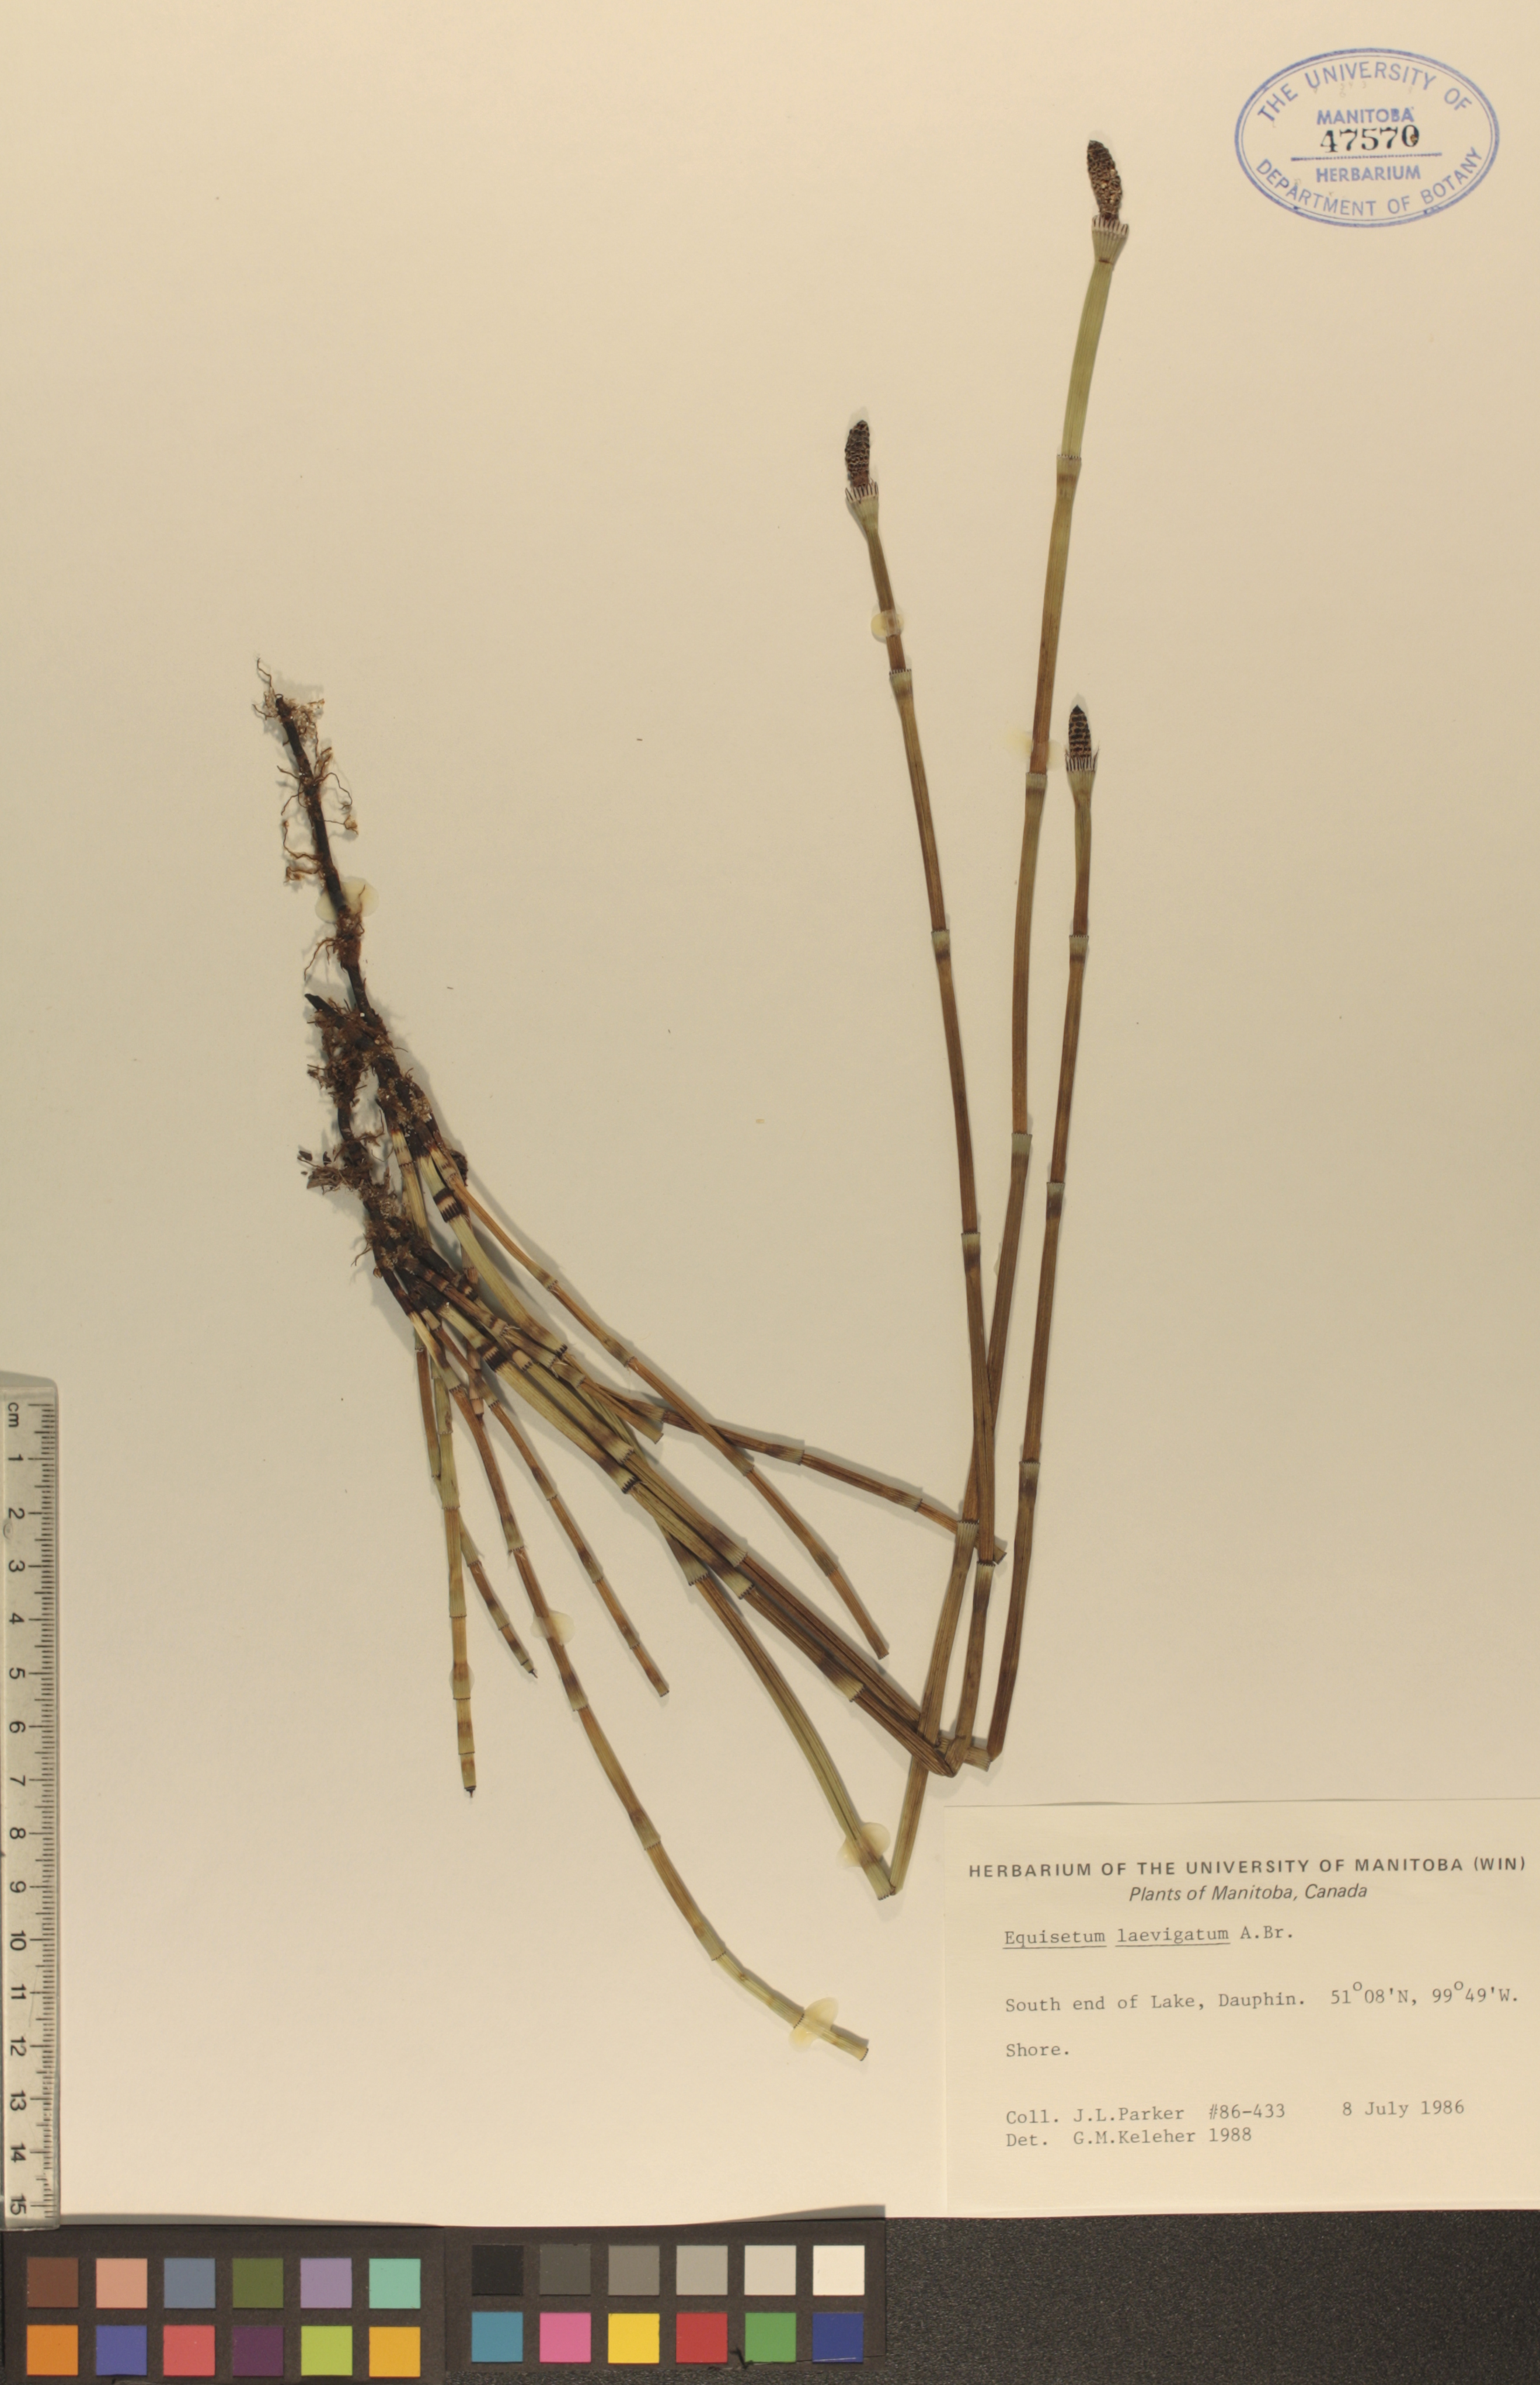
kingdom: Plantae
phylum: Tracheophyta
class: Polypodiopsida
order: Equisetales
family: Equisetaceae
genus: Equisetum
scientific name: Equisetum laevigatum
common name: Smooth scouring-rush
